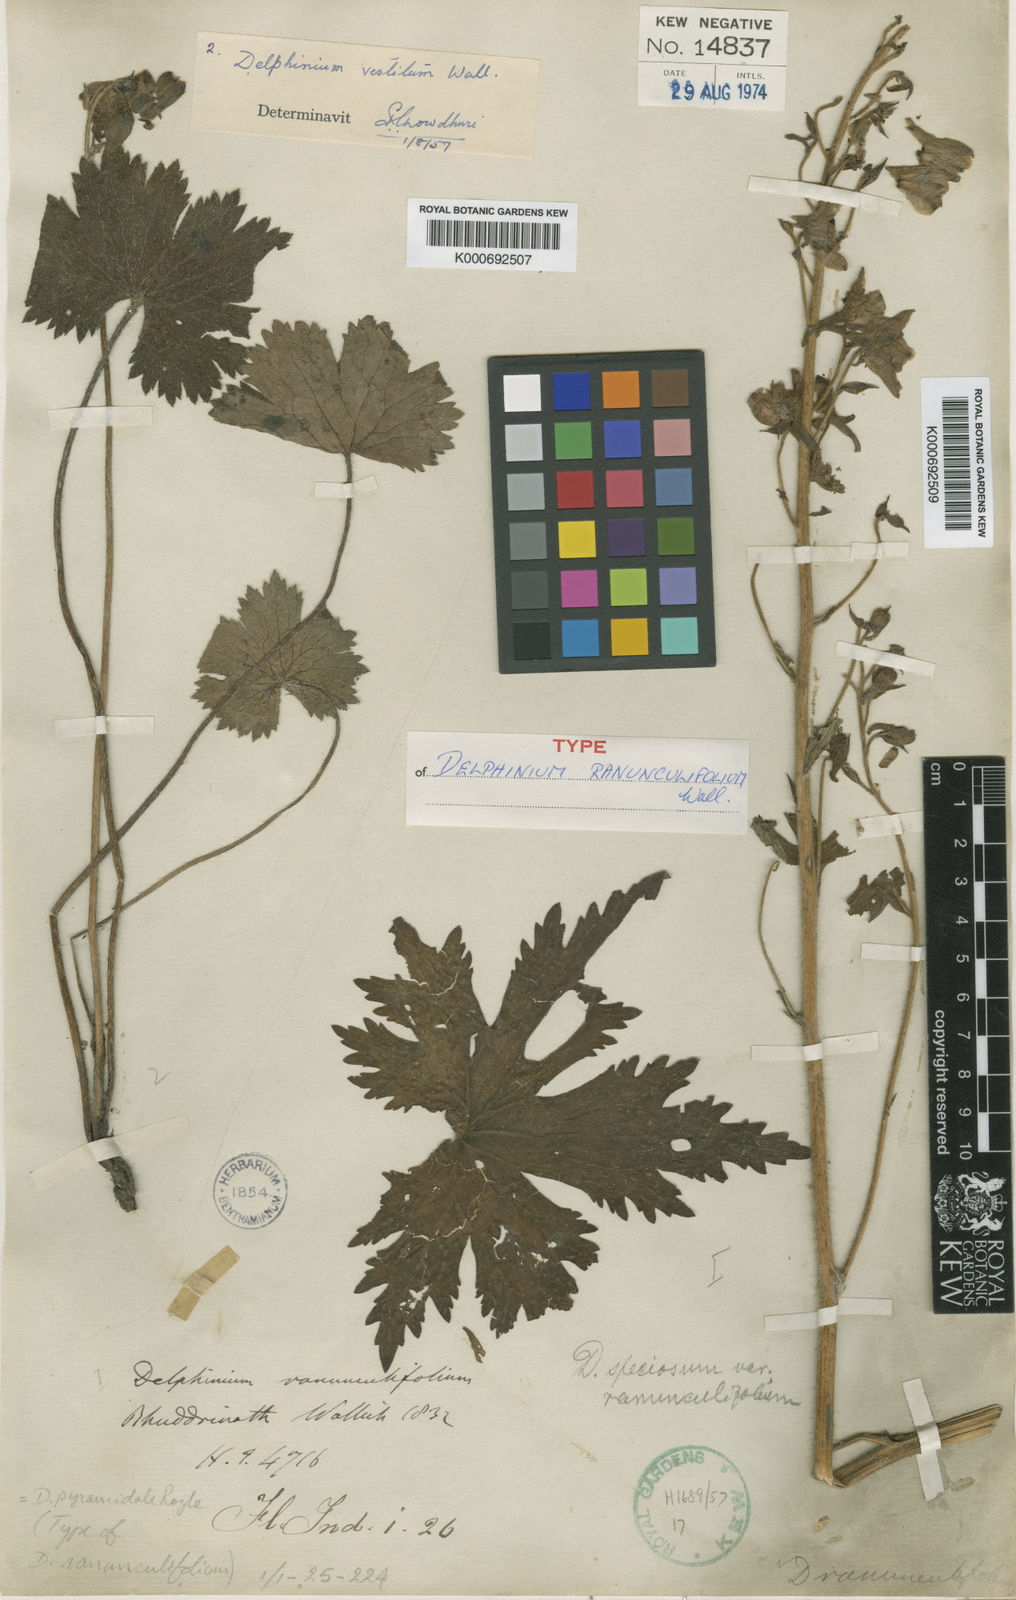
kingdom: Plantae
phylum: Tracheophyta
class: Magnoliopsida
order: Ranunculales
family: Ranunculaceae
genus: Delphinium
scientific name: Delphinium pyramidale
